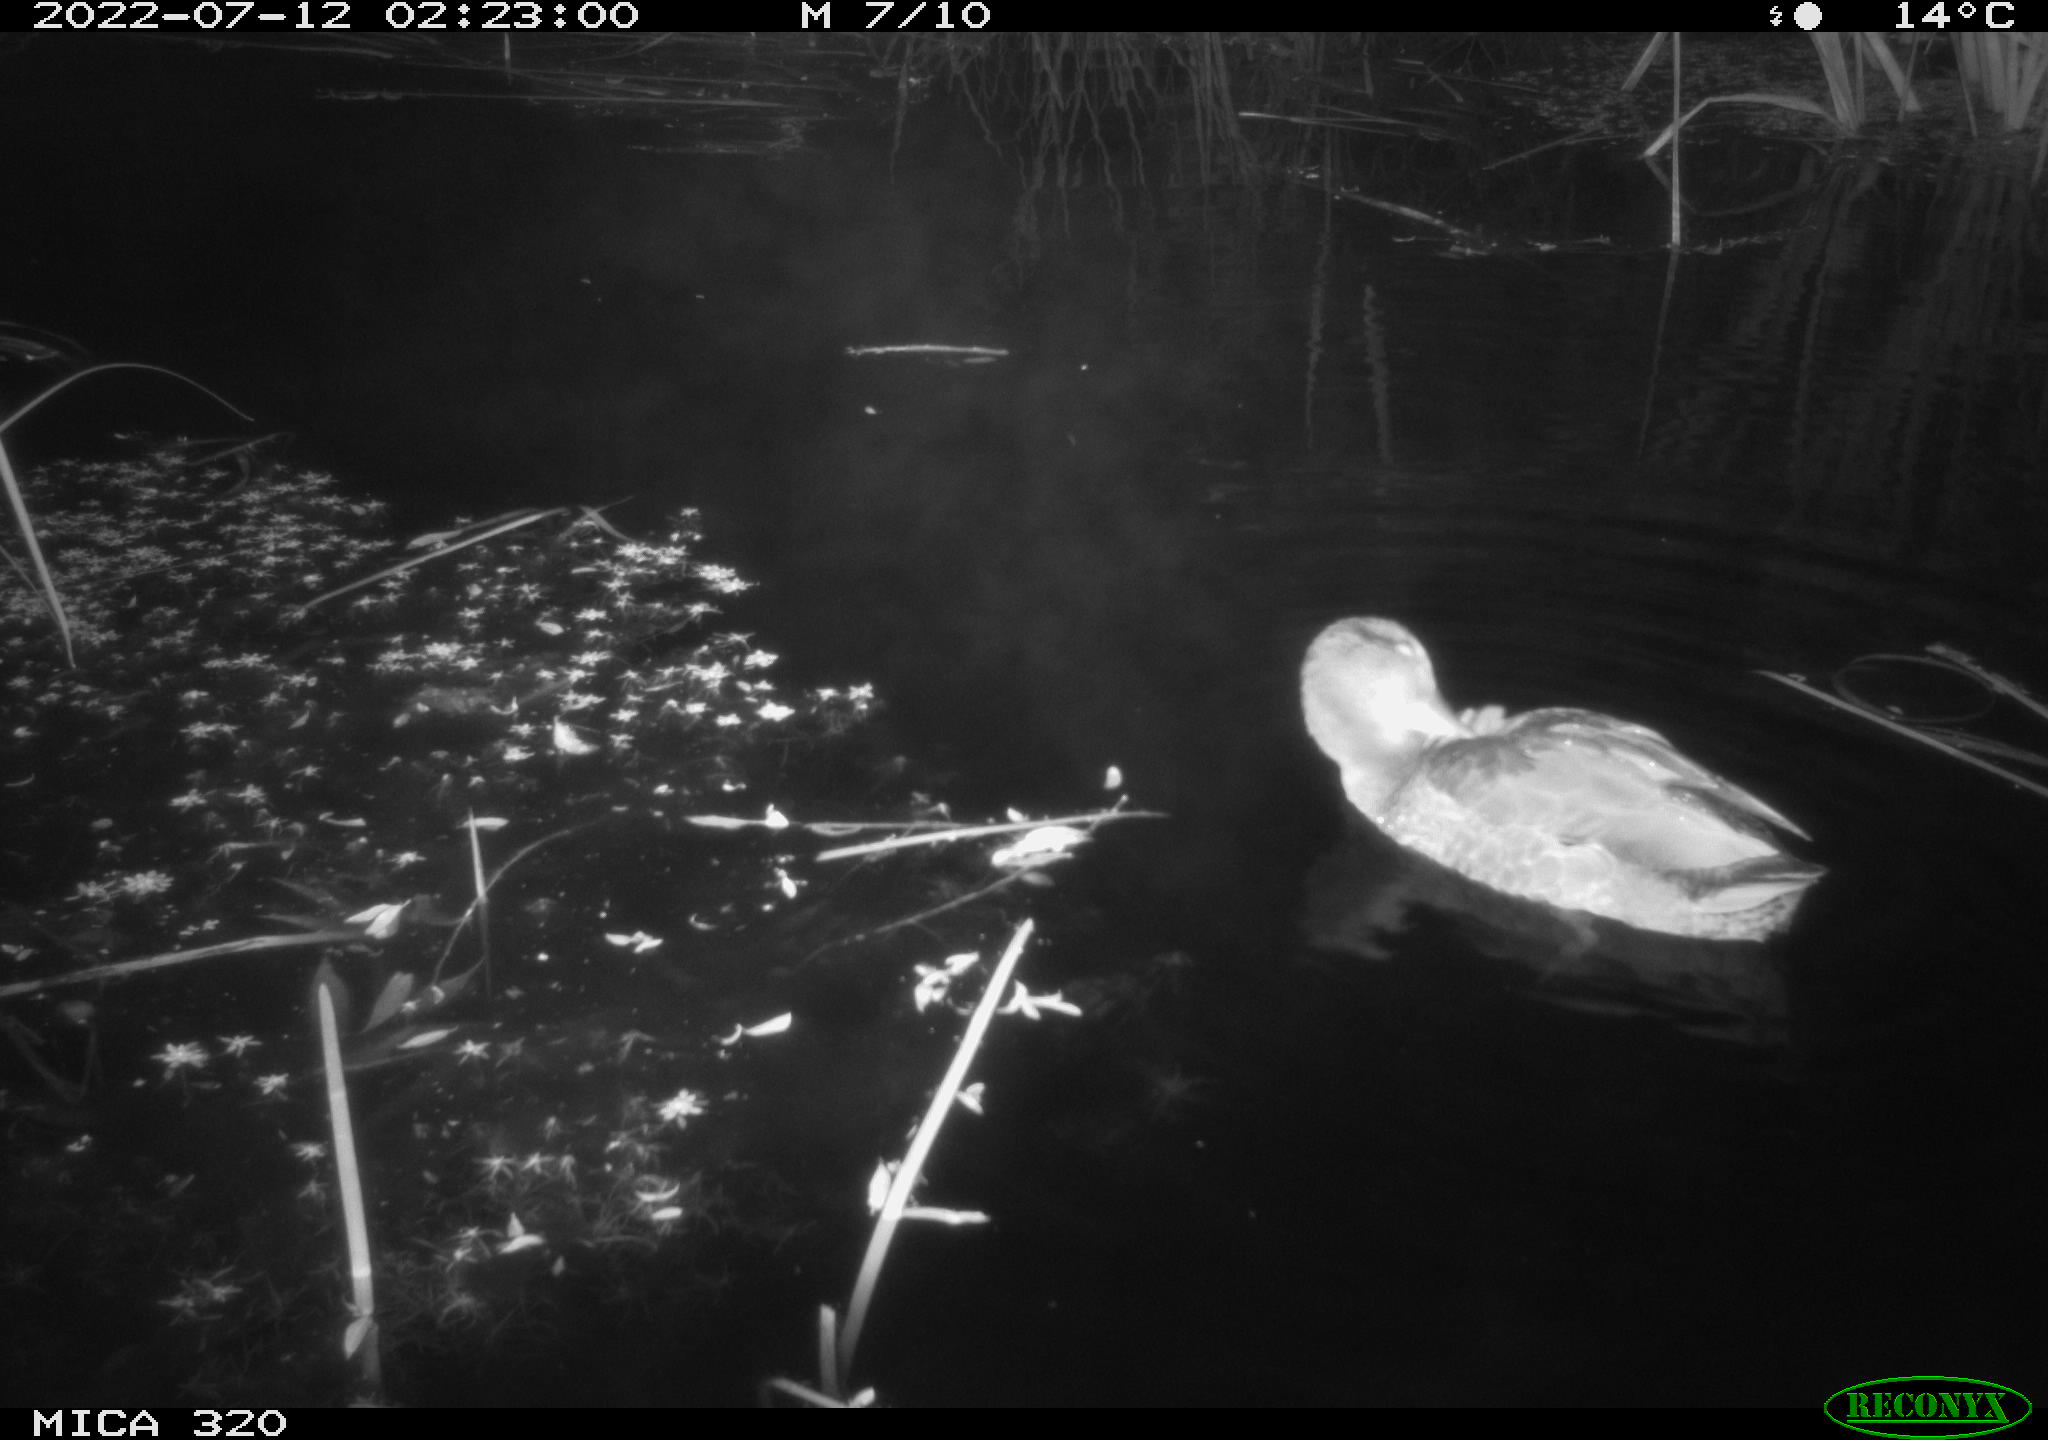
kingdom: Animalia
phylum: Chordata
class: Aves
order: Anseriformes
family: Anatidae
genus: Anas
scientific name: Anas platyrhynchos
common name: Mallard
